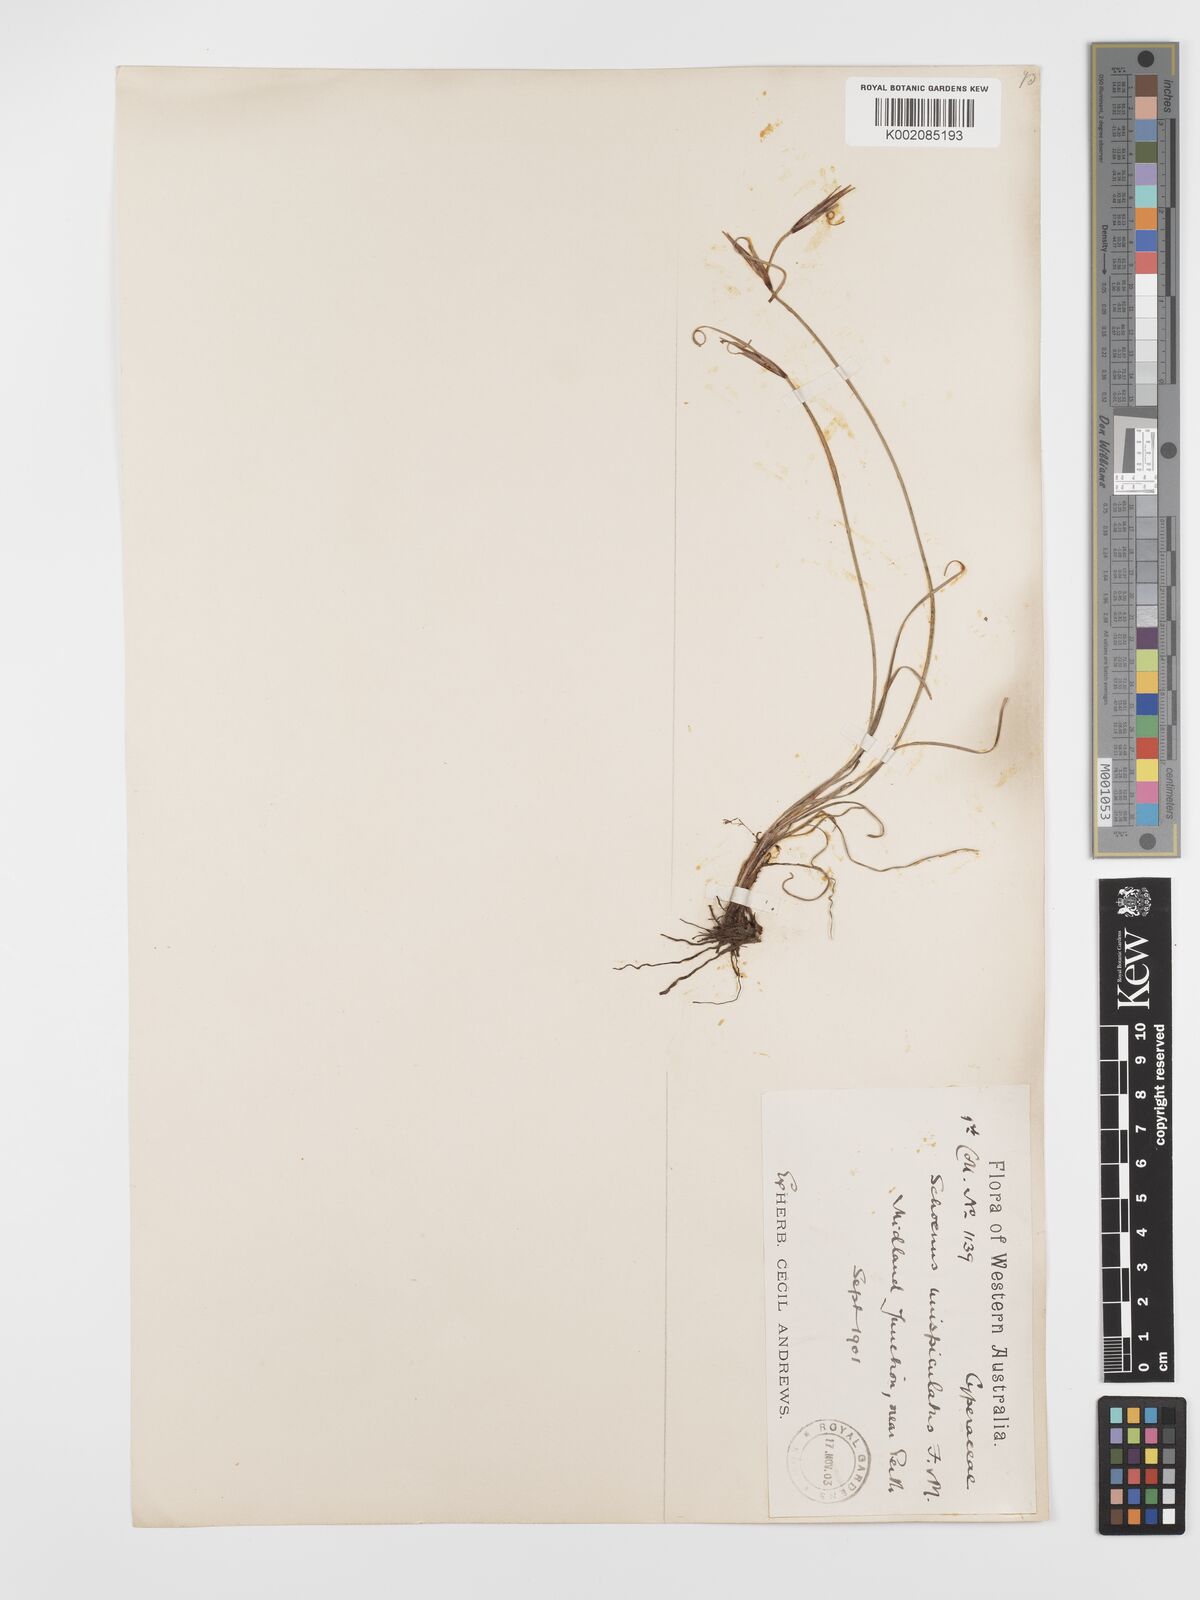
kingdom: Plantae
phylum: Tracheophyta
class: Liliopsida
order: Poales
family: Cyperaceae
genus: Schoenus
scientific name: Schoenus unispiculatus
